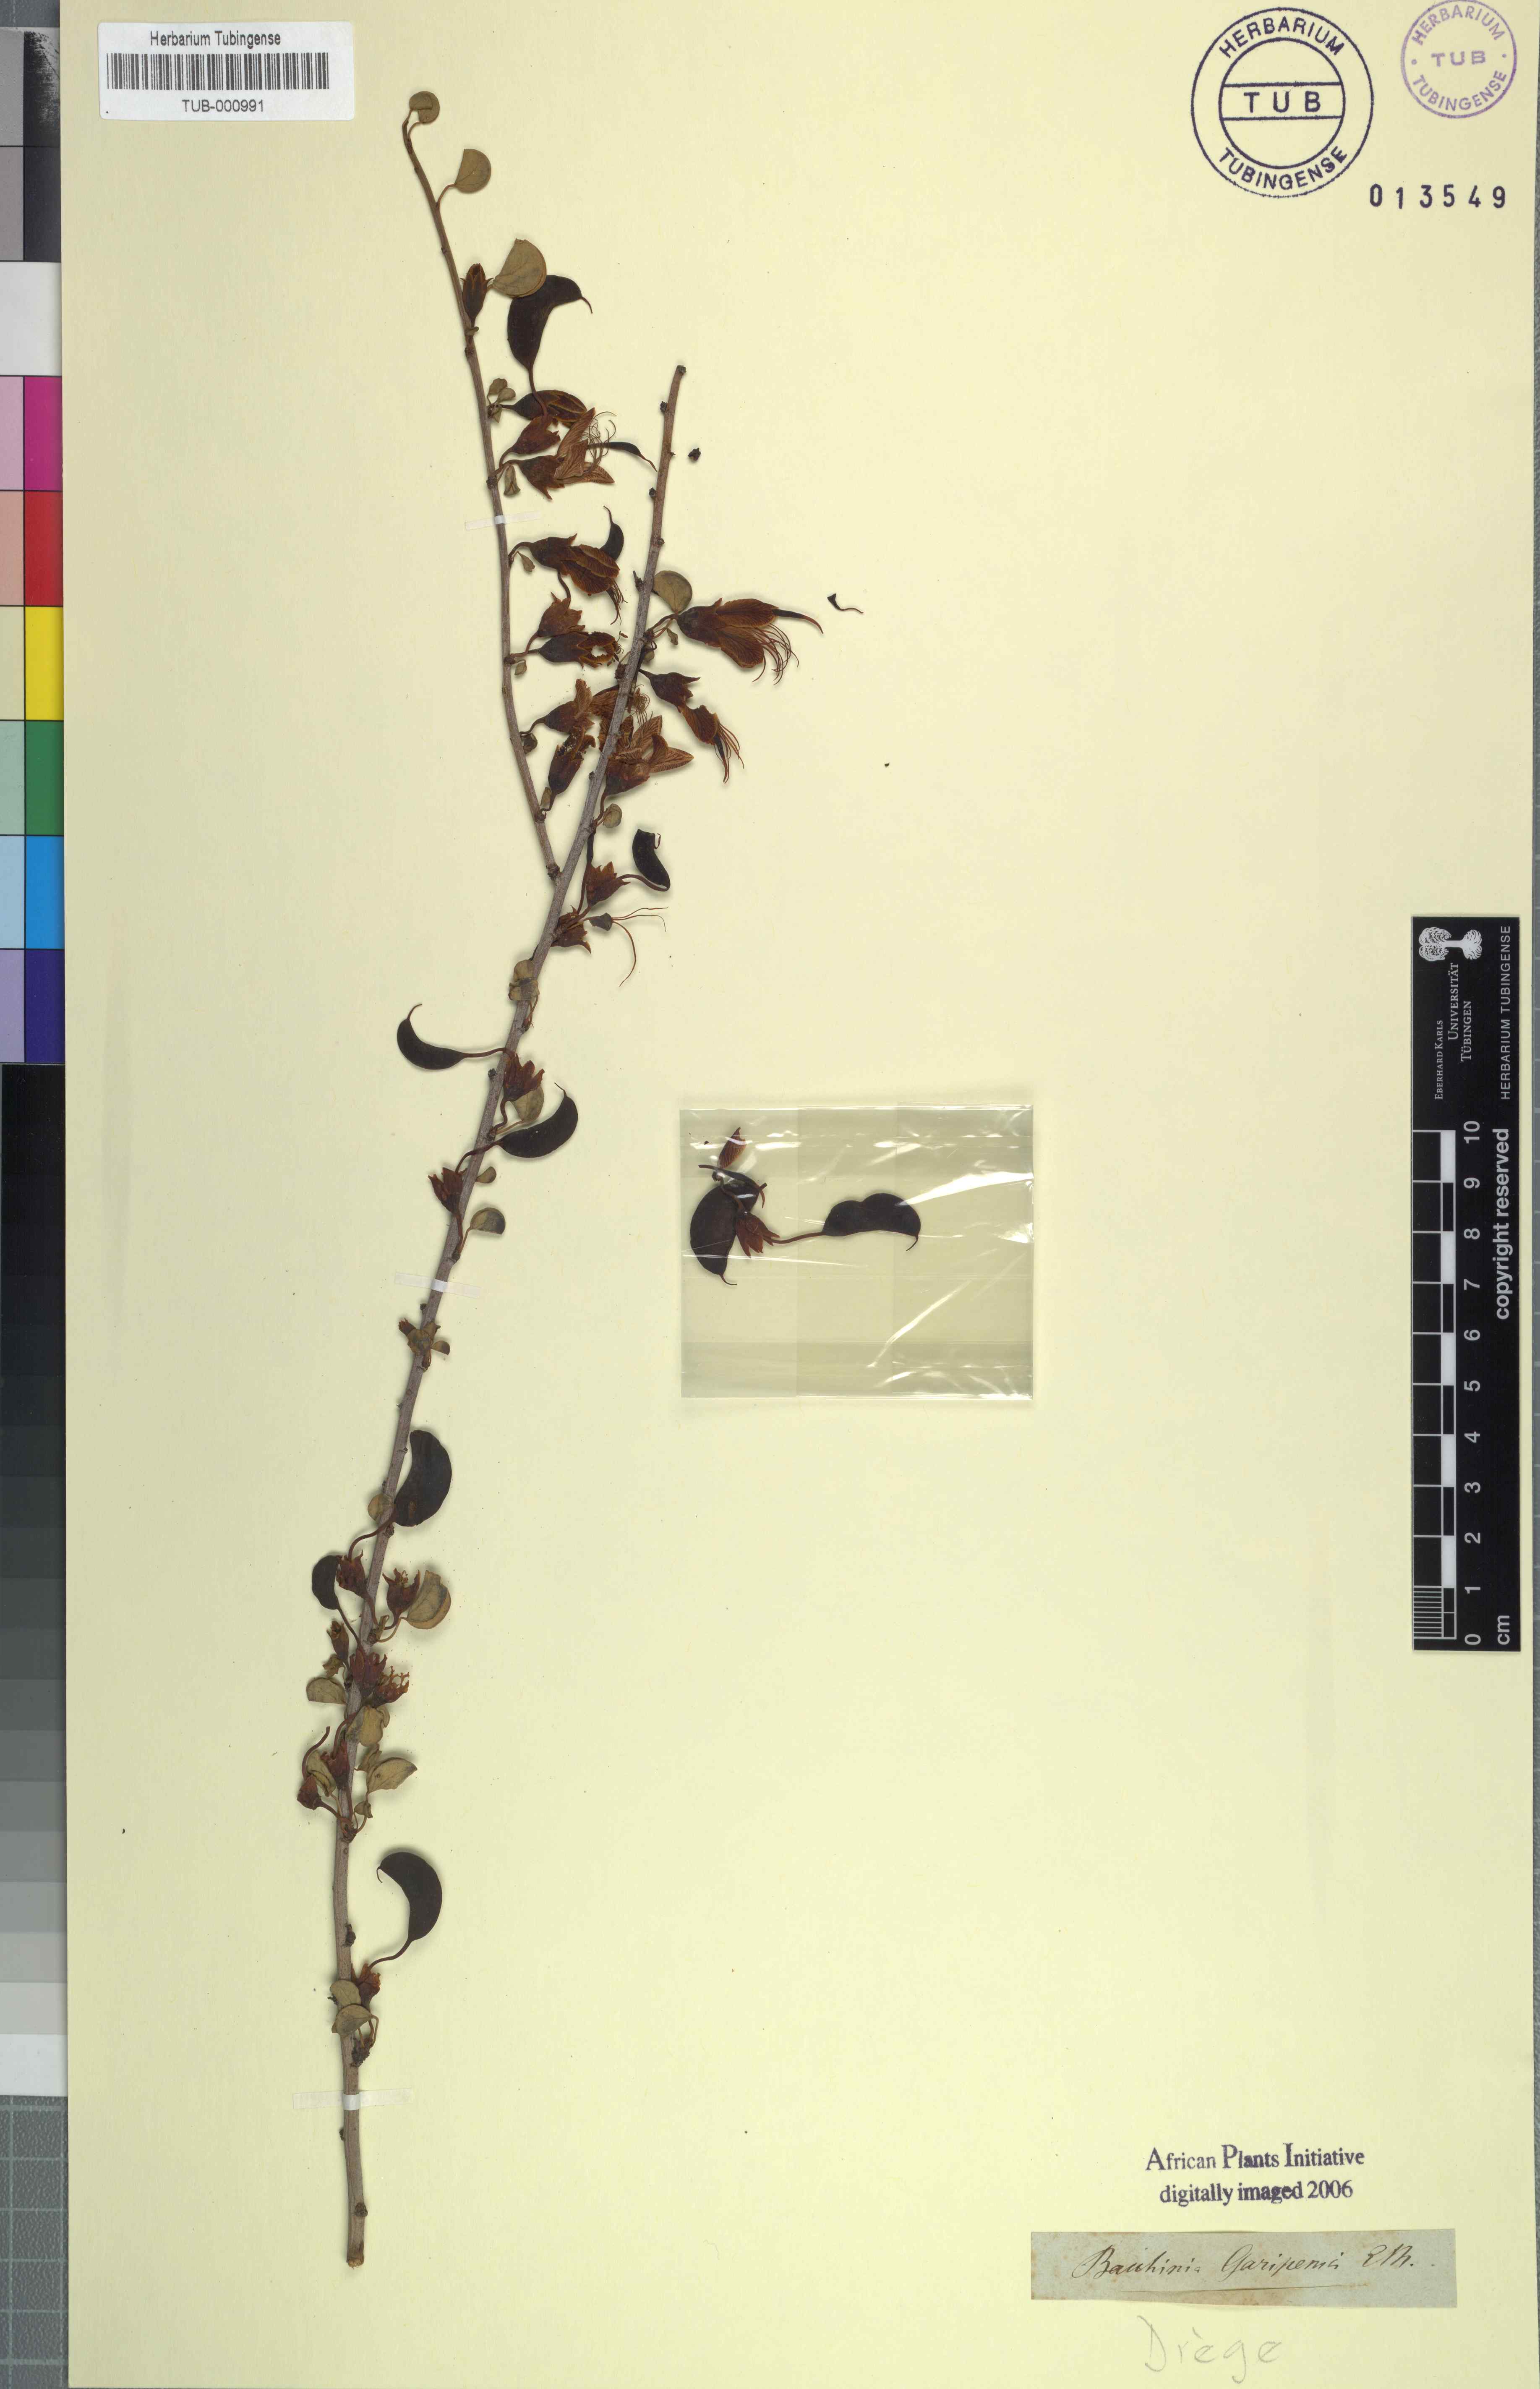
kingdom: Plantae
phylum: Tracheophyta
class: Magnoliopsida
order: Fabales
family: Fabaceae
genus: Adenolobus
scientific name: Adenolobus garipensis
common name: Butterfly-leaf
